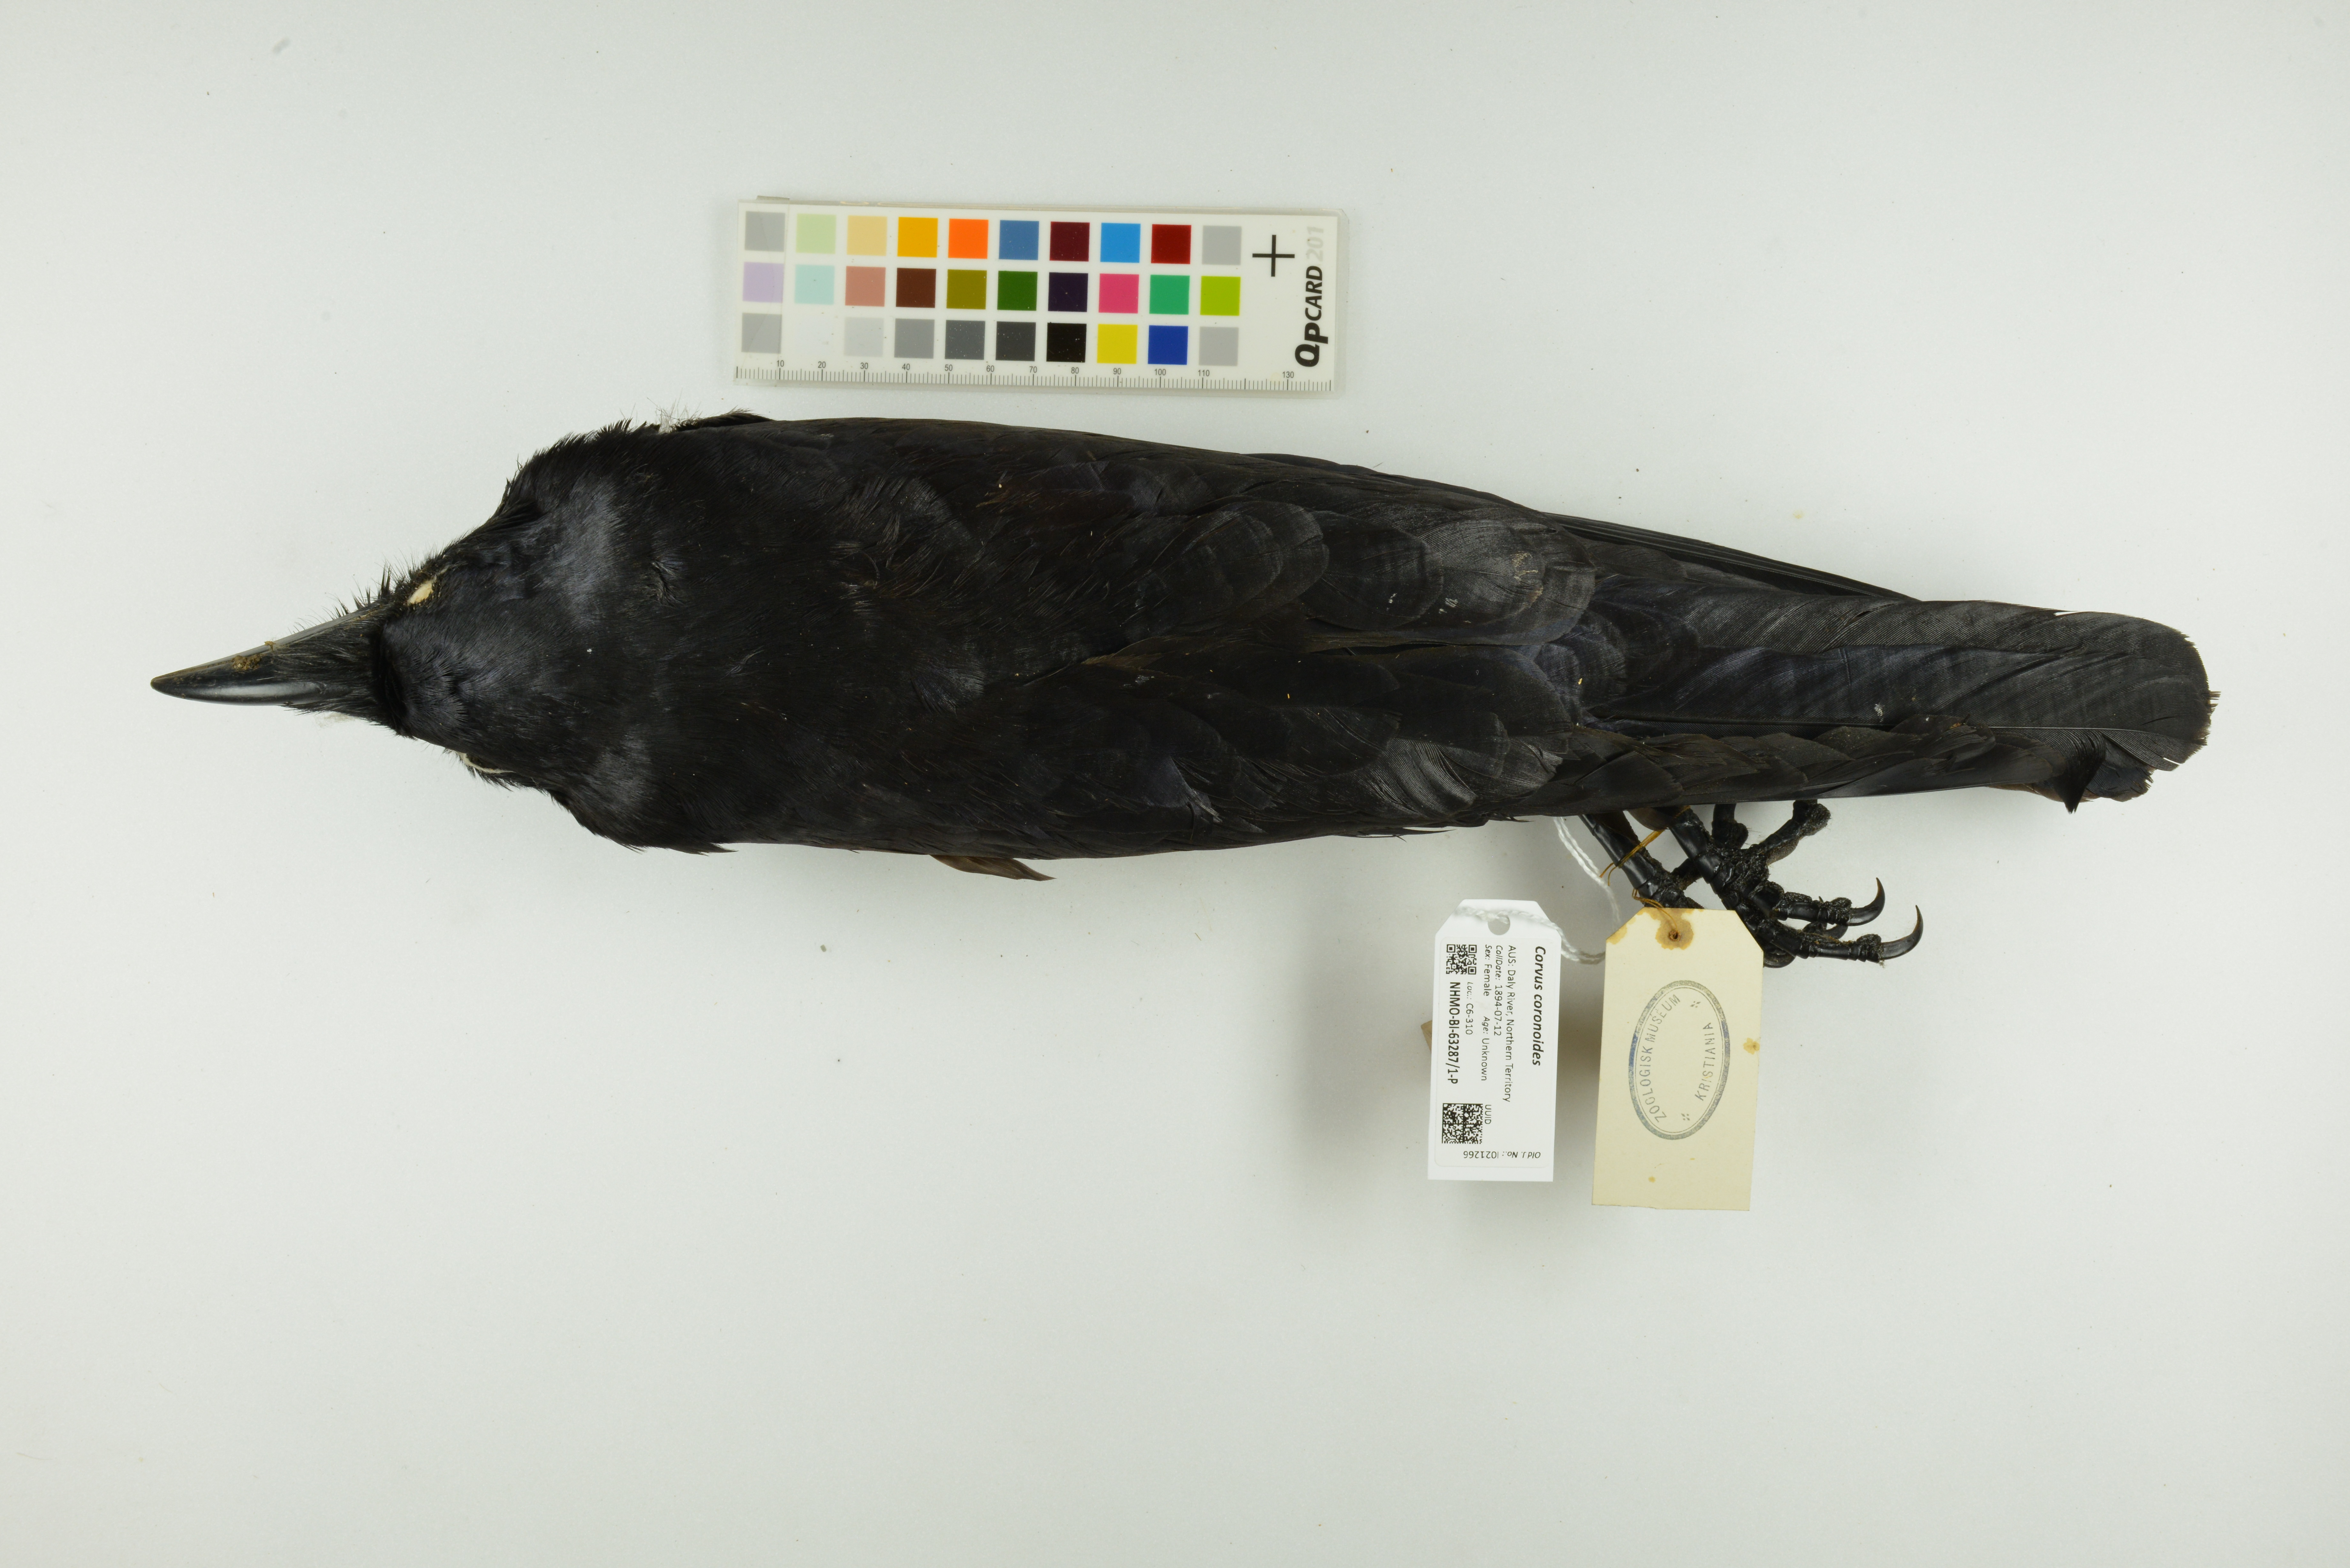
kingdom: Animalia
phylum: Chordata
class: Aves
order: Passeriformes
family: Corvidae
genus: Corvus
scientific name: Corvus coronoides
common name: Australian raven
